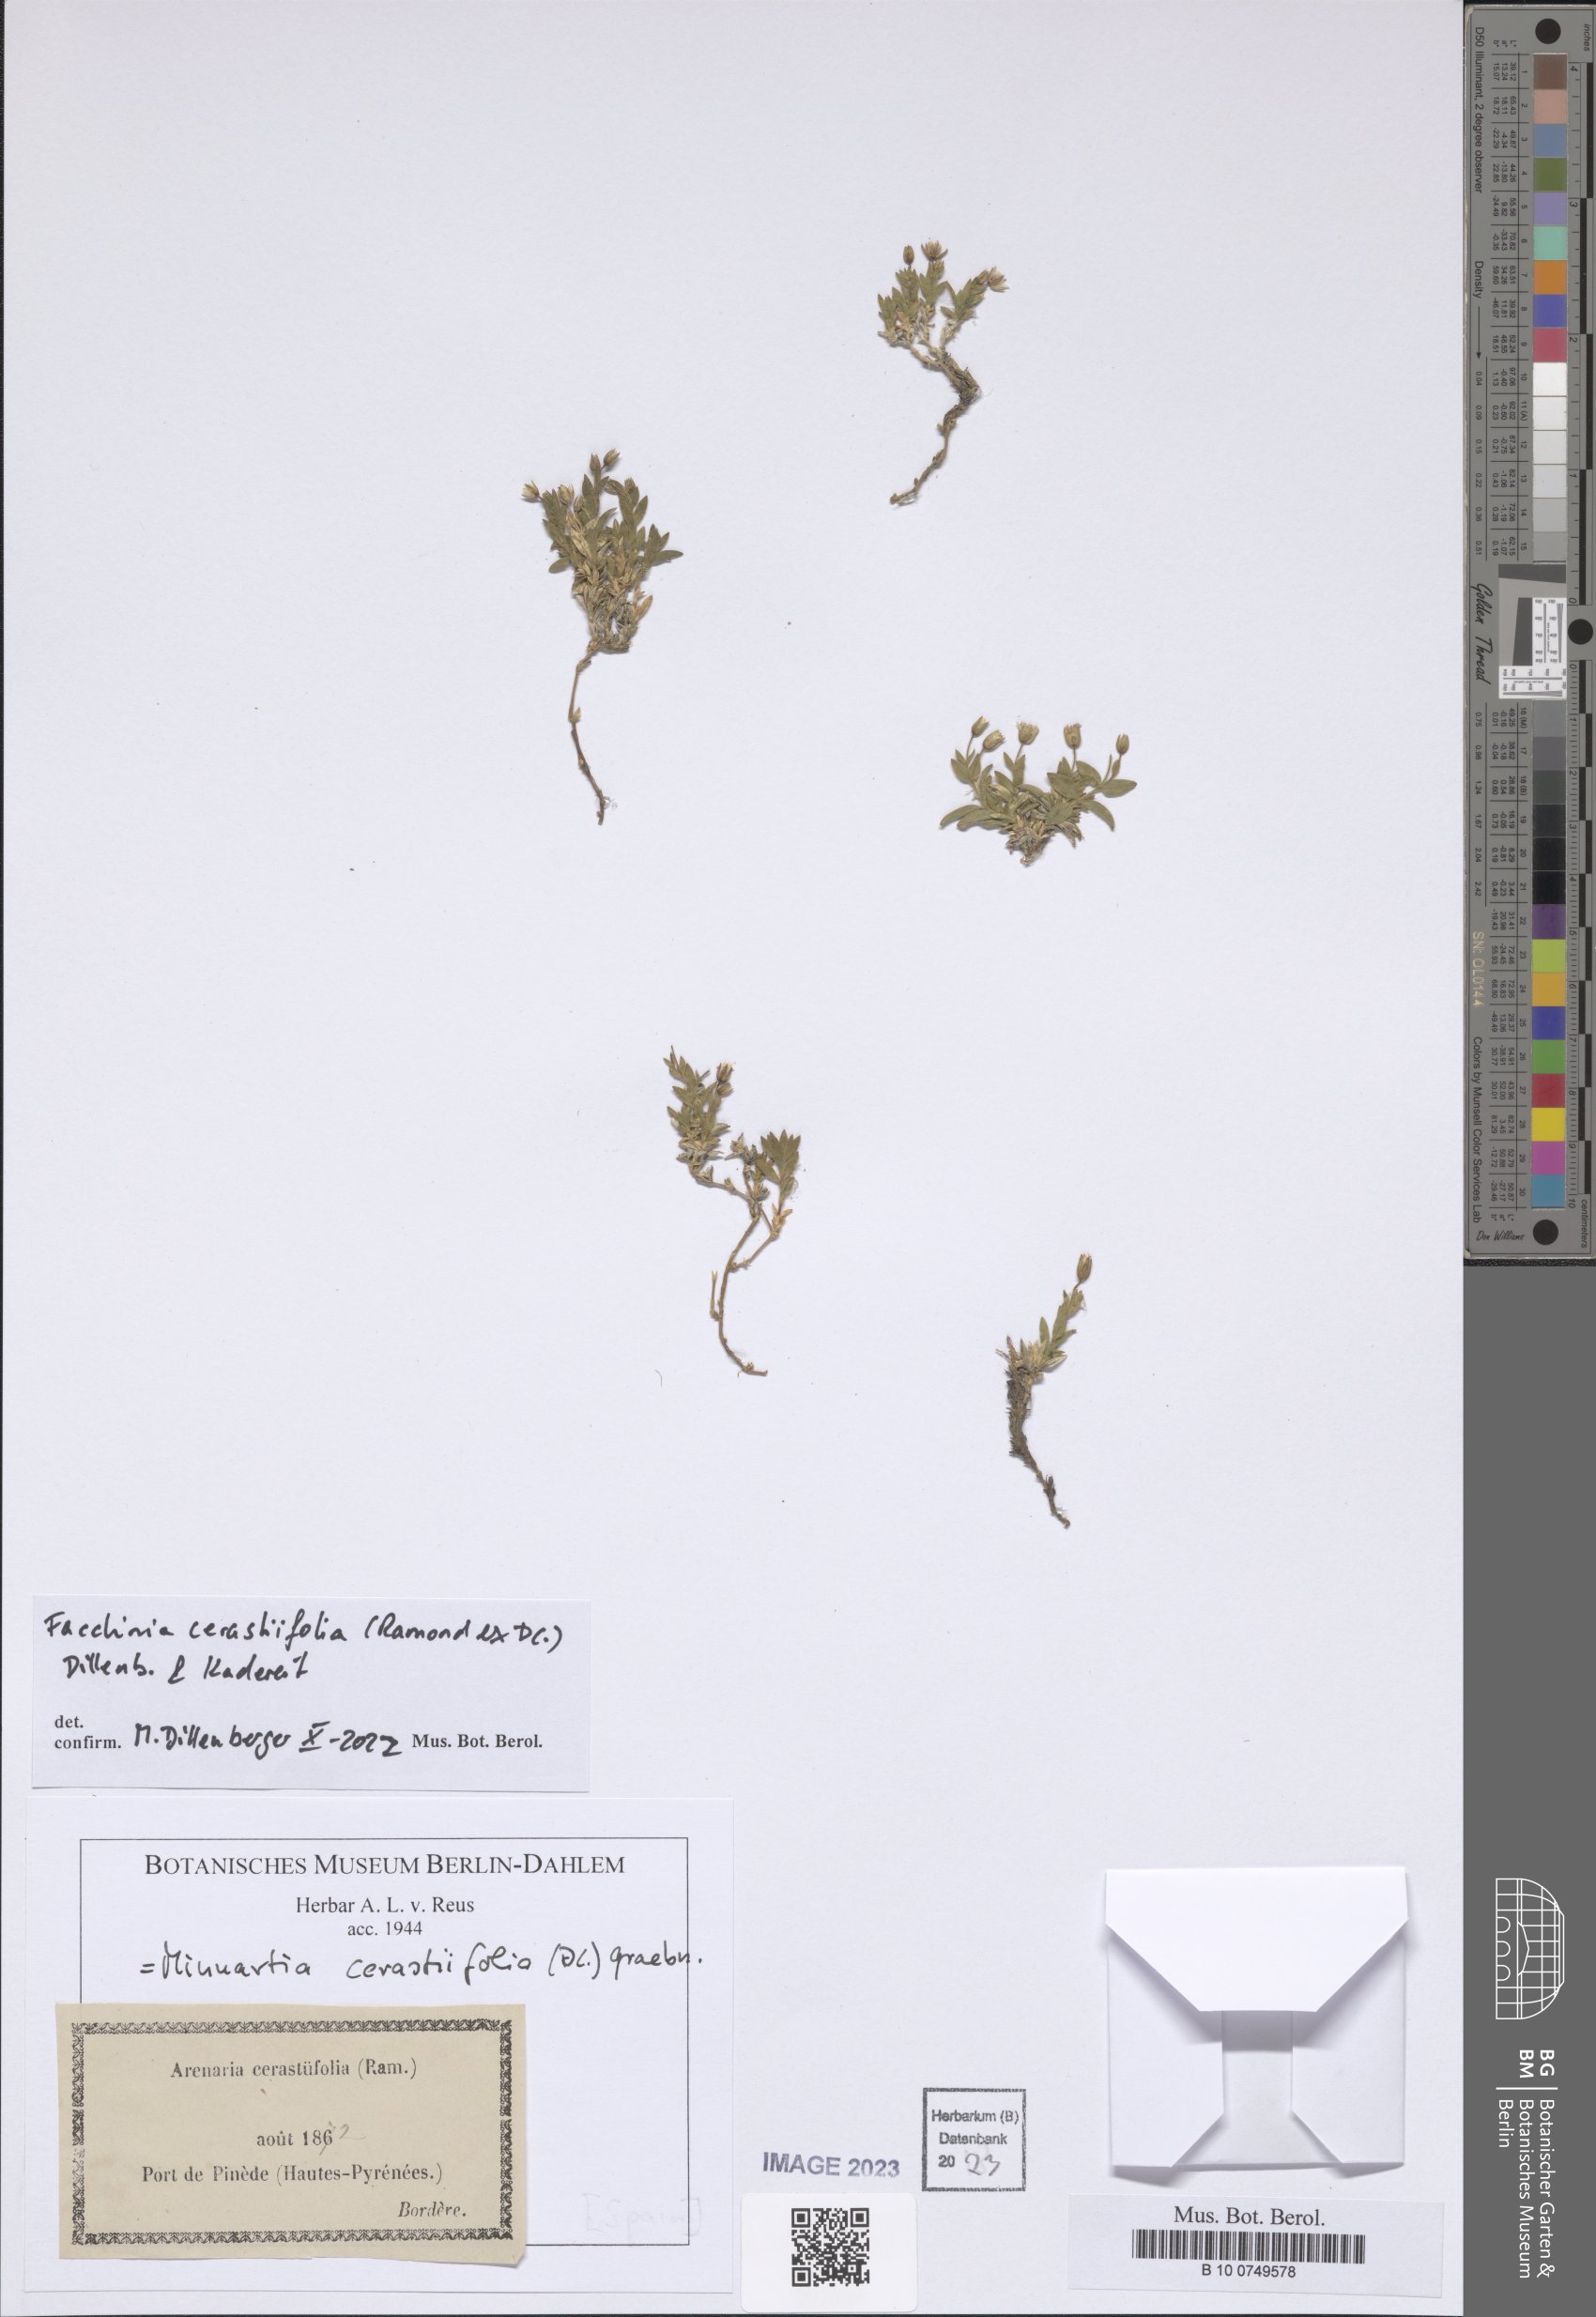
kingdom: Plantae
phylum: Tracheophyta
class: Magnoliopsida
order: Caryophyllales
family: Caryophyllaceae
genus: Facchinia
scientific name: Facchinia cerastiifolia
